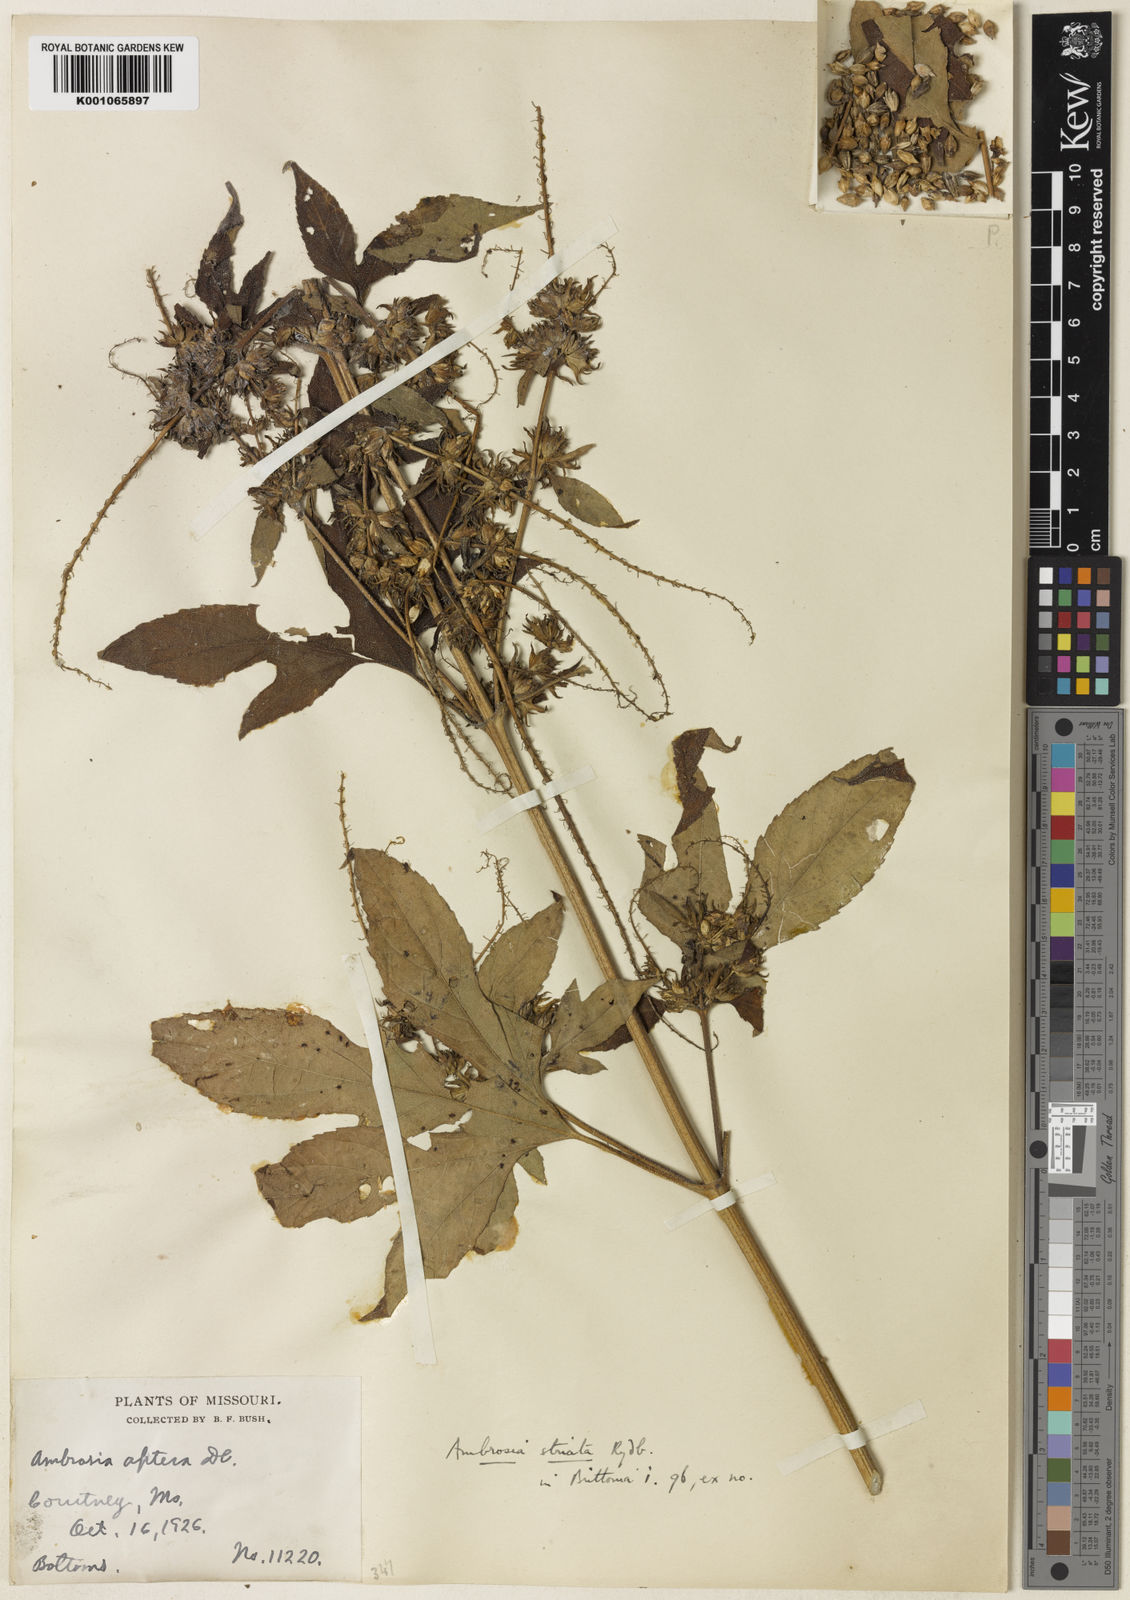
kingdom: Plantae
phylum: Tracheophyta
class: Magnoliopsida
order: Asterales
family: Asteraceae
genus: Ambrosia
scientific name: Ambrosia striata
